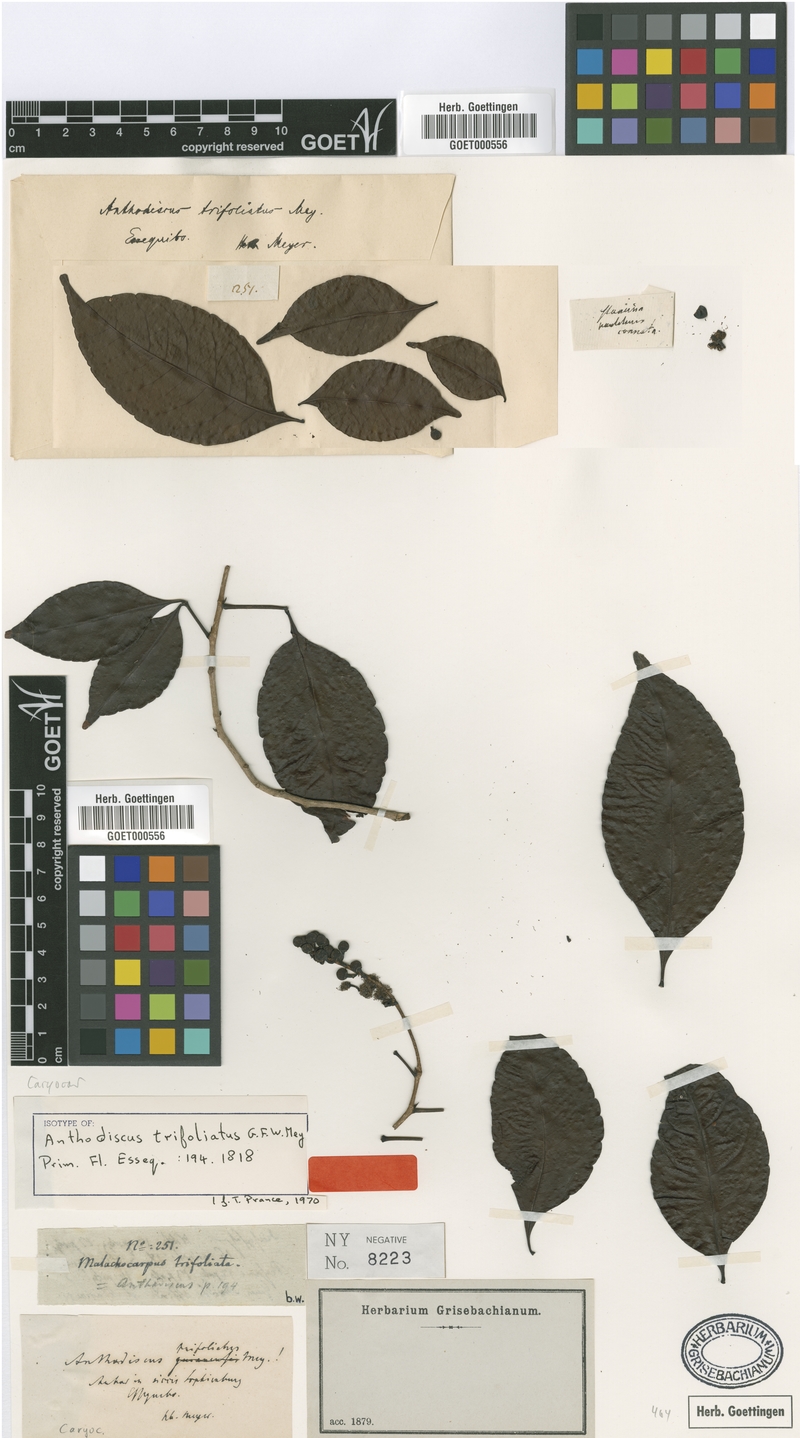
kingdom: Plantae
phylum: Tracheophyta
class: Magnoliopsida
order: Malpighiales
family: Caryocaraceae
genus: Anthodiscus
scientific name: Anthodiscus trifoliatus
